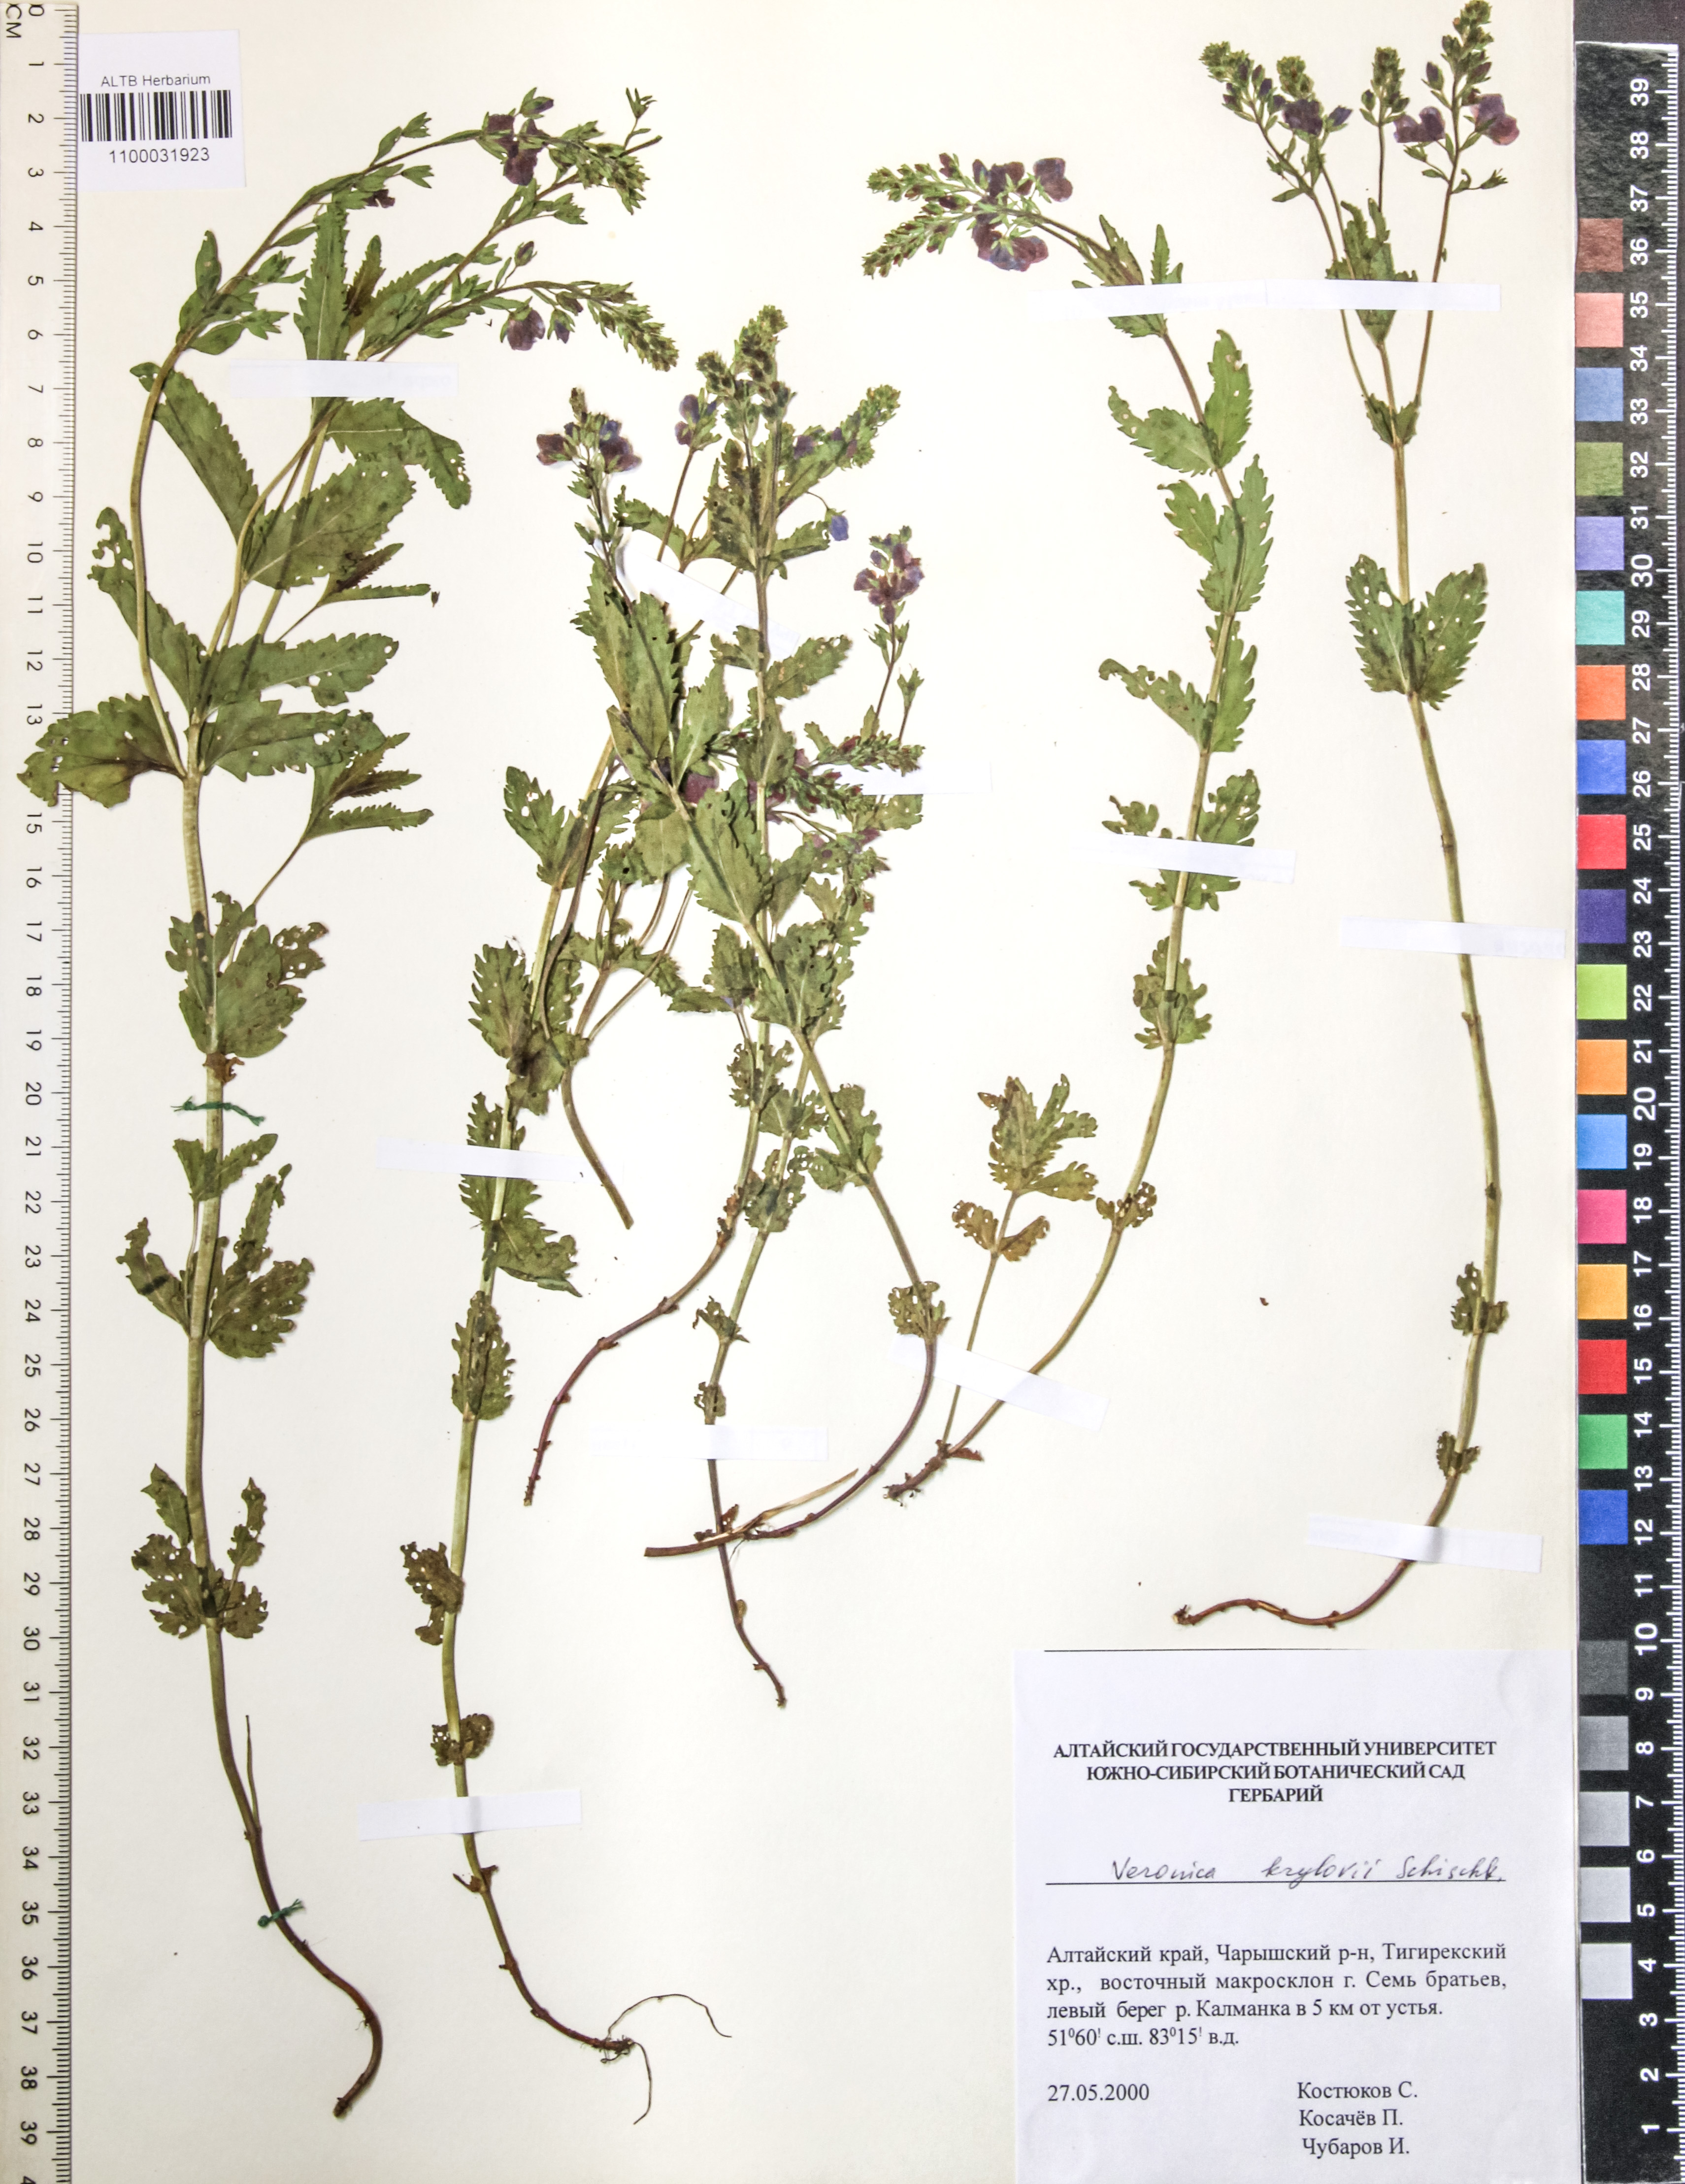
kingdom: Plantae
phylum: Tracheophyta
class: Magnoliopsida
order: Lamiales
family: Plantaginaceae
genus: Veronica
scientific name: Veronica krylovii
